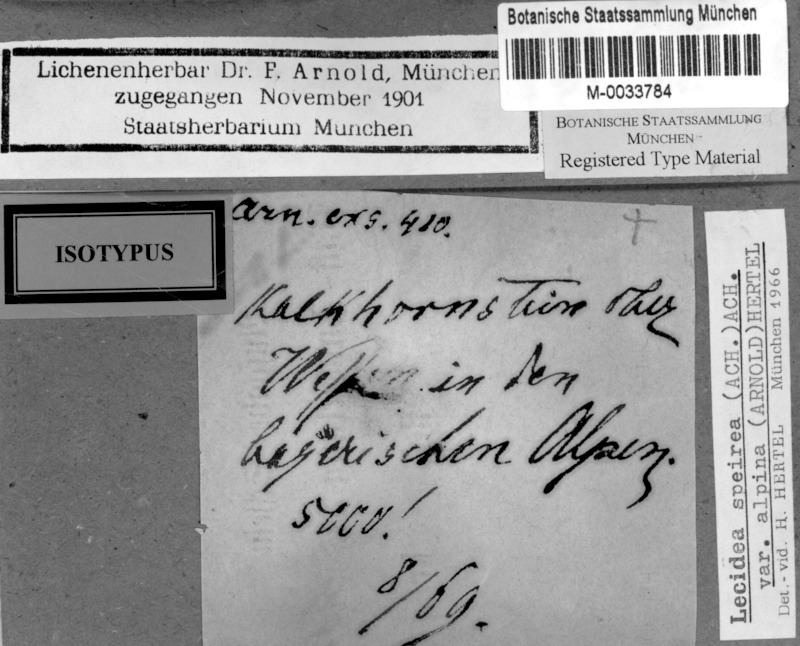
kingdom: Fungi
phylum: Ascomycota
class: Lecanoromycetes
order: Lecideales
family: Lecideaceae
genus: Porpidia
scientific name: Porpidia speirea
